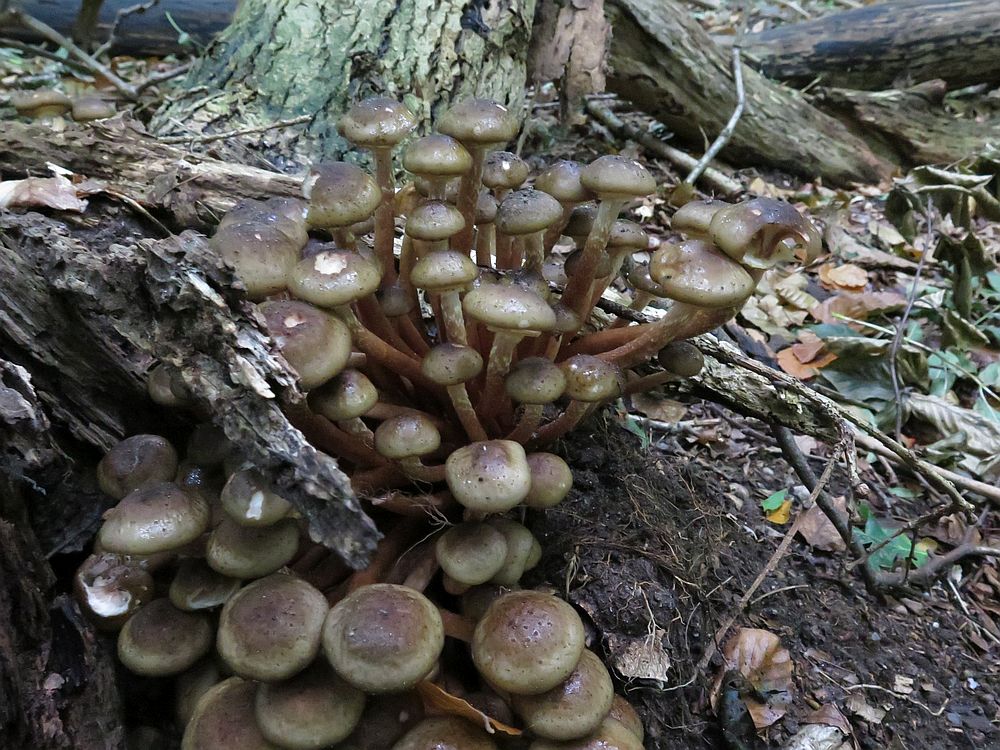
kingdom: Fungi
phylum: Basidiomycota
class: Agaricomycetes
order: Agaricales
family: Physalacriaceae
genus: Armillaria
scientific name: Armillaria mellea
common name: ægte honningsvamp
